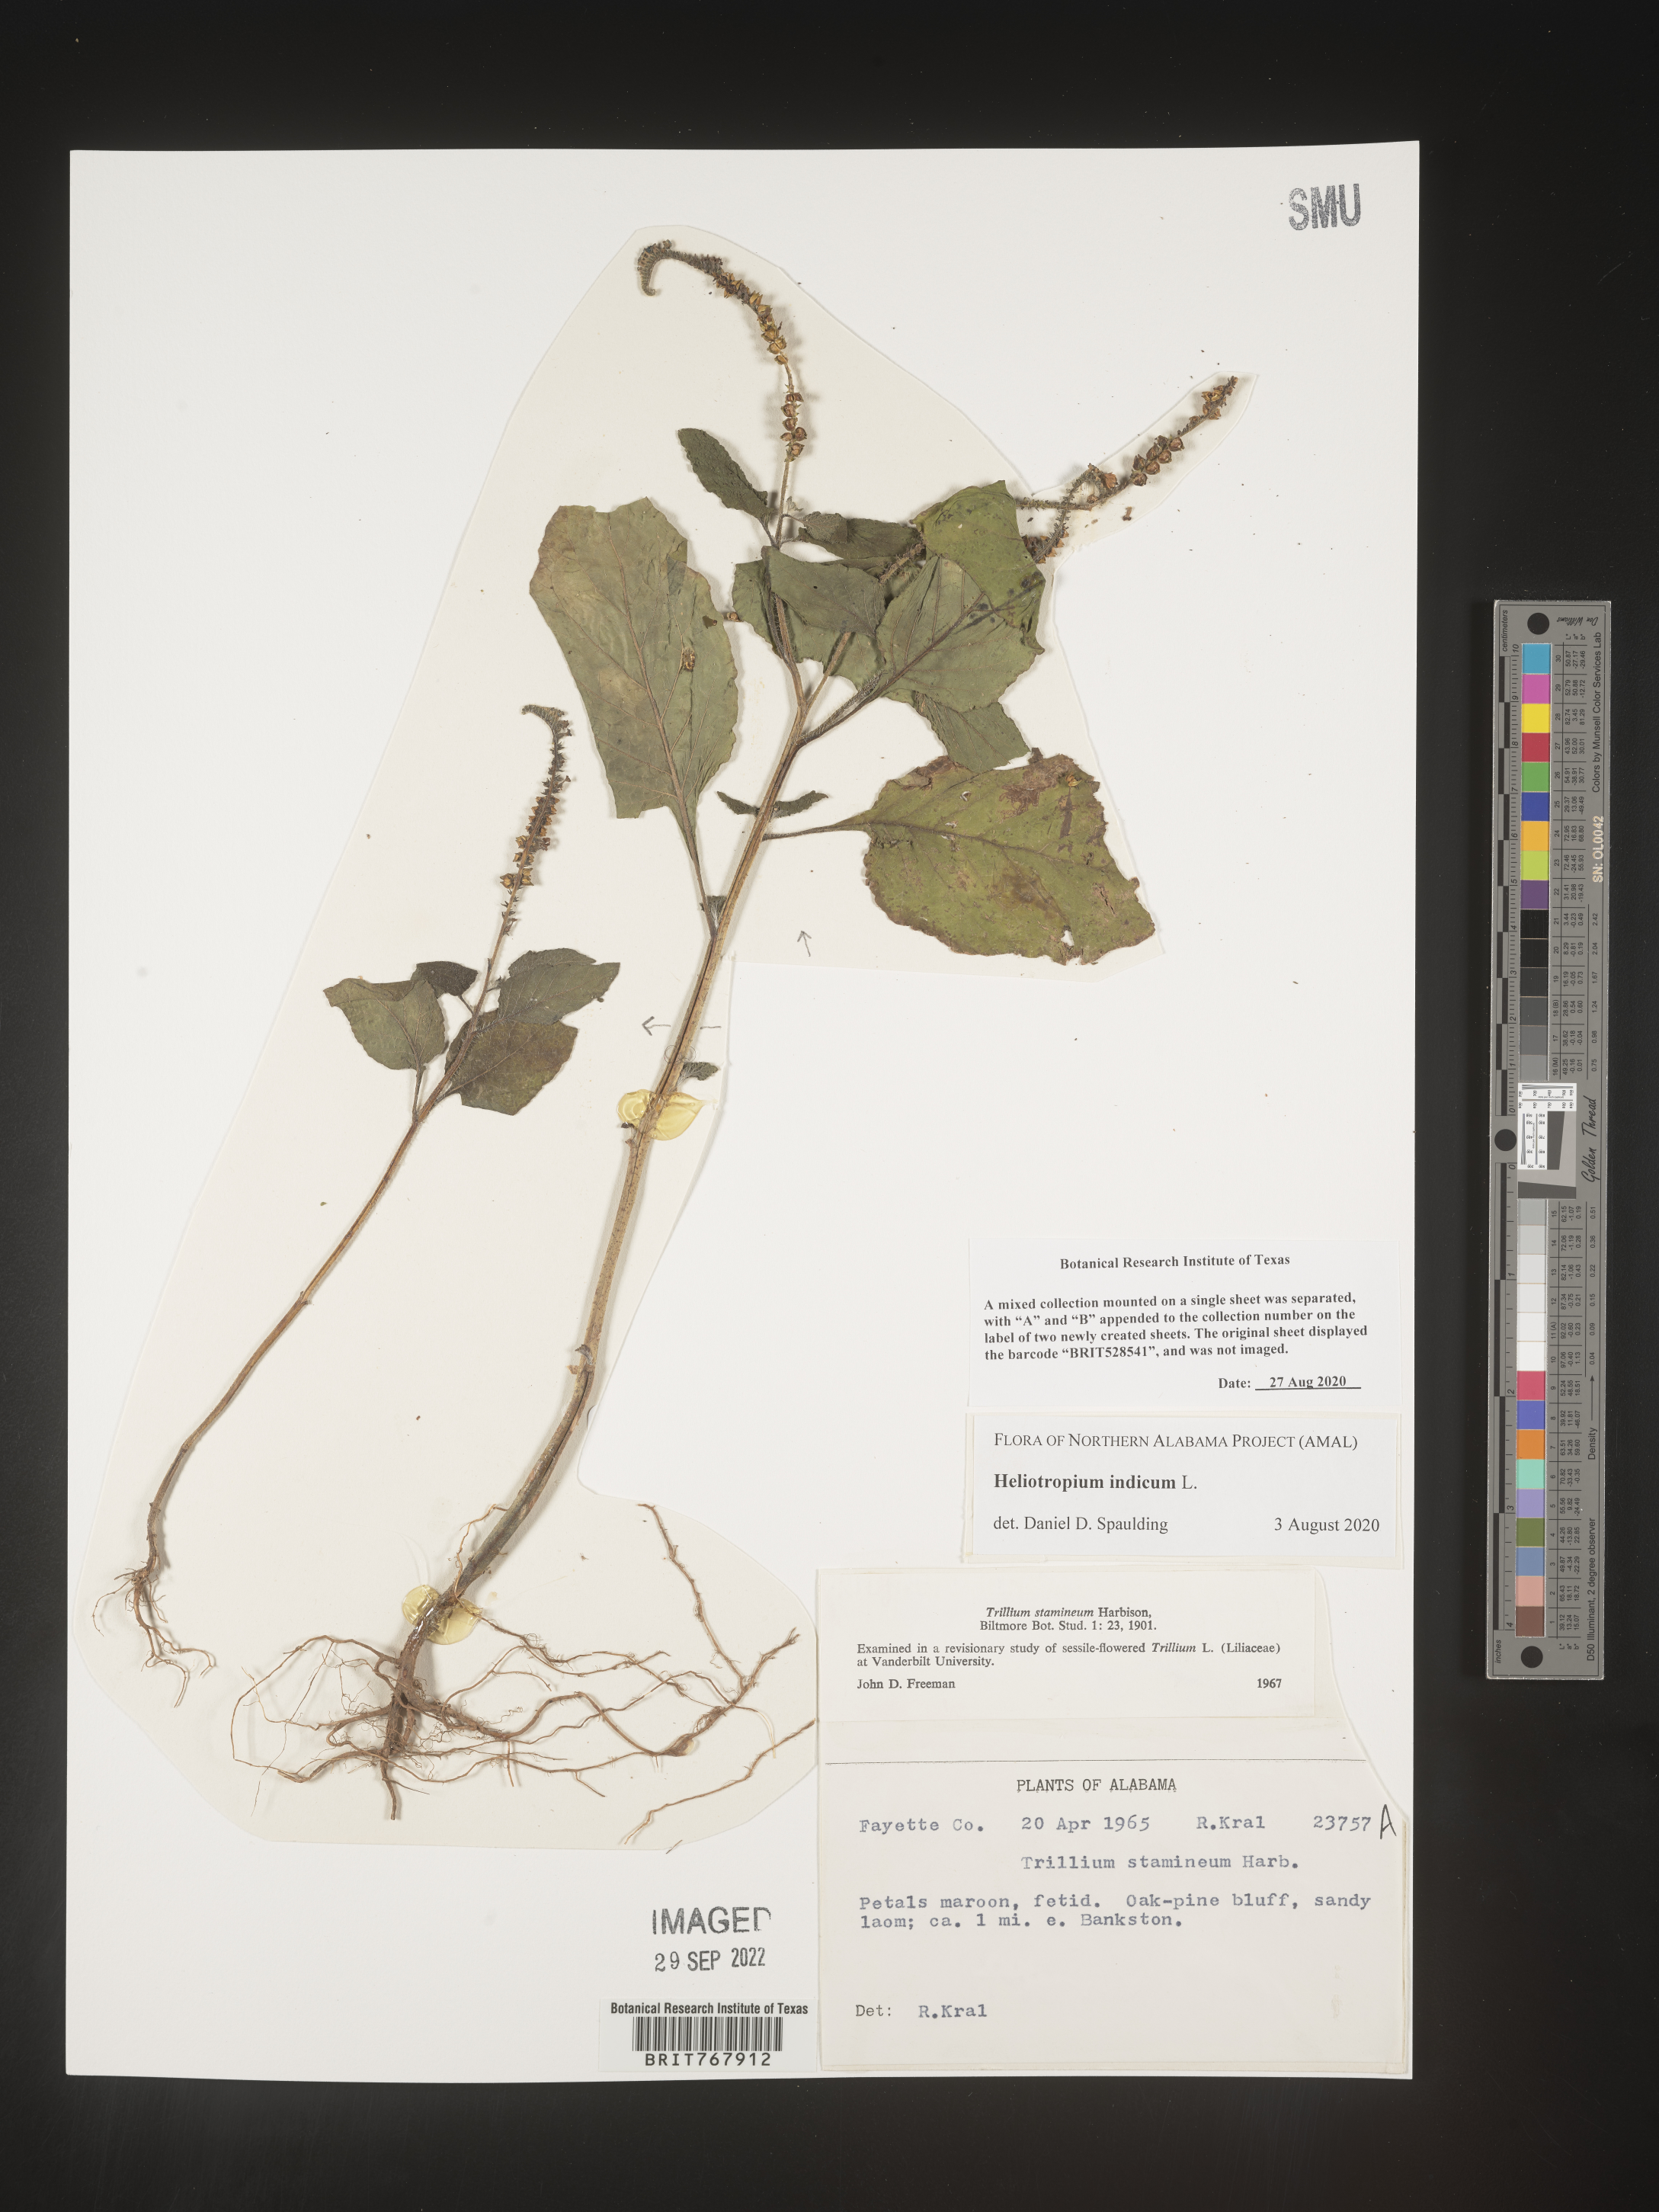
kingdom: Plantae
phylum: Tracheophyta
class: Magnoliopsida
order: Boraginales
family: Heliotropiaceae
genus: Heliotropium
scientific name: Heliotropium indicum
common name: Indian heliotrope
